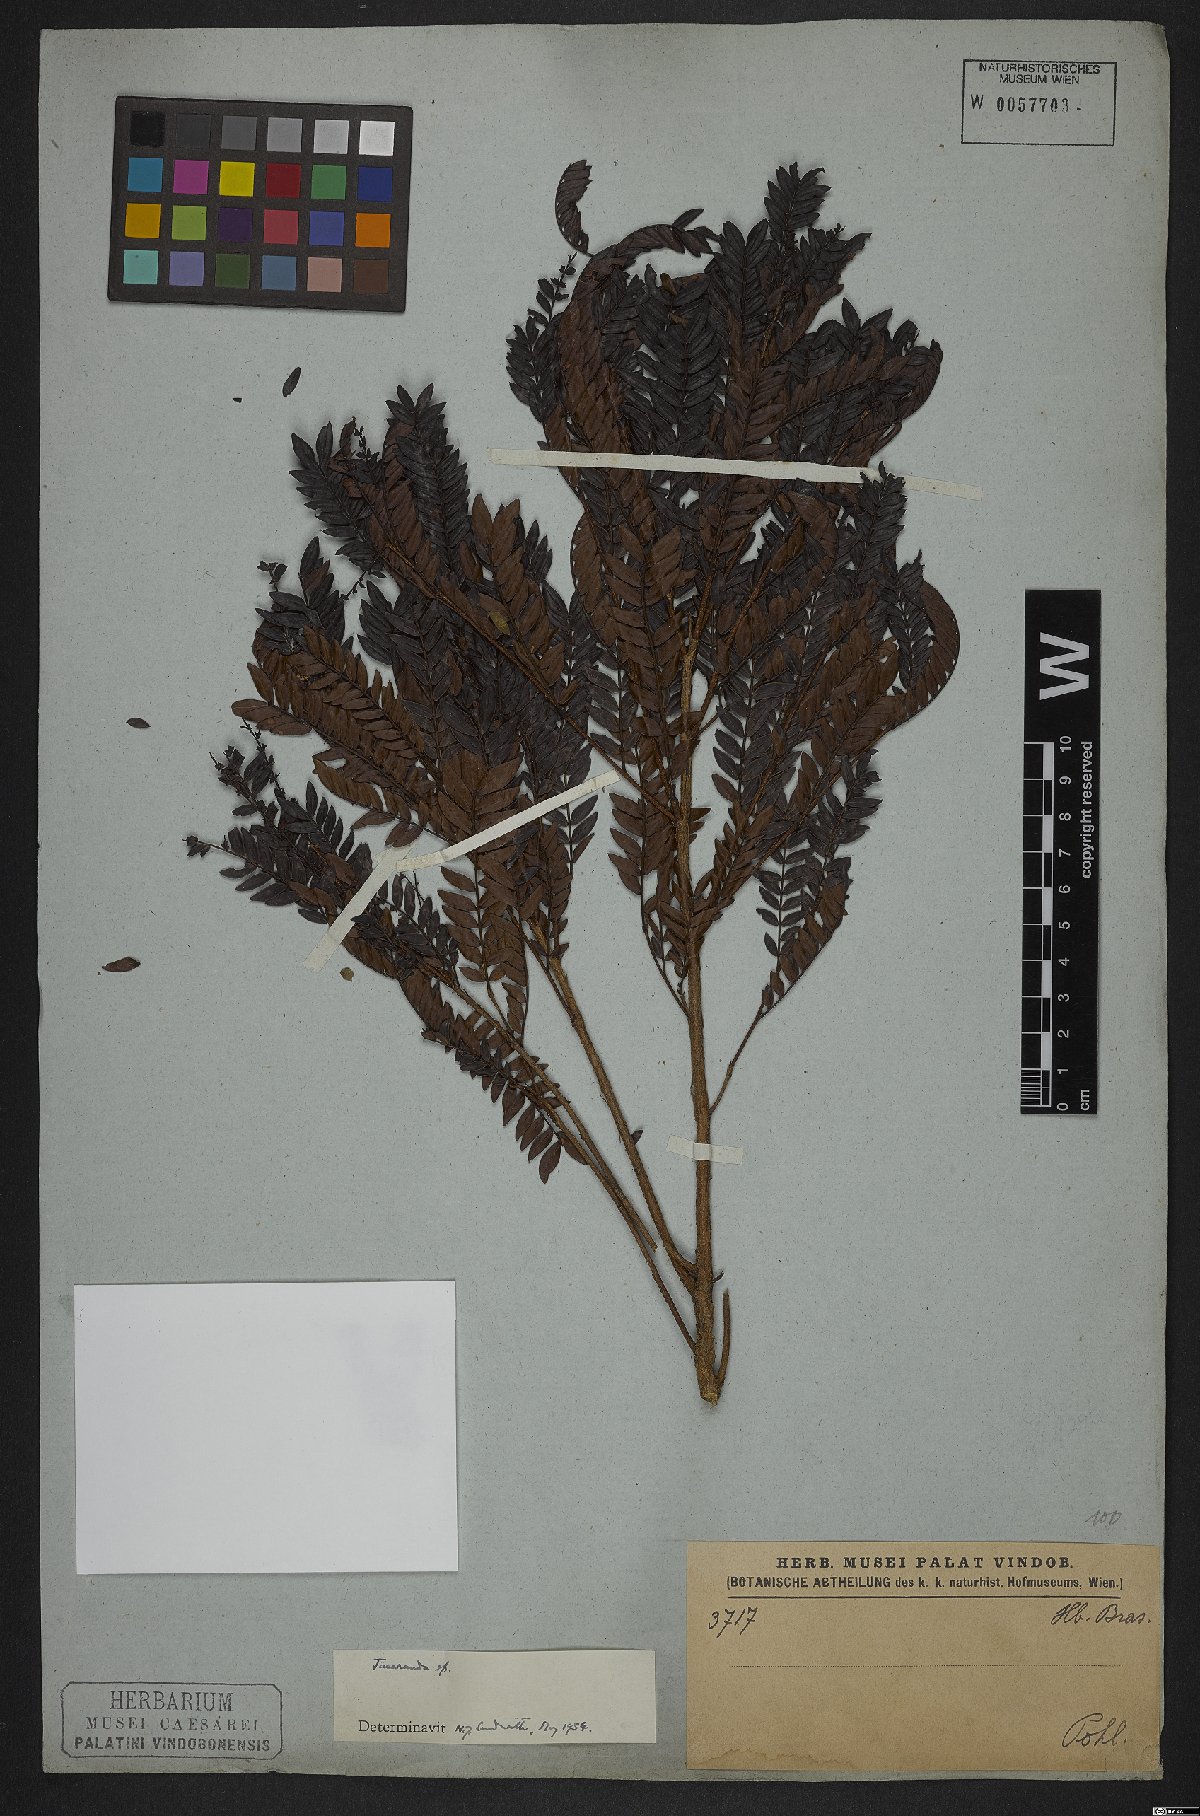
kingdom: Plantae
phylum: Tracheophyta
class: Magnoliopsida
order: Lamiales
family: Bignoniaceae
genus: Jacaranda
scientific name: Jacaranda
